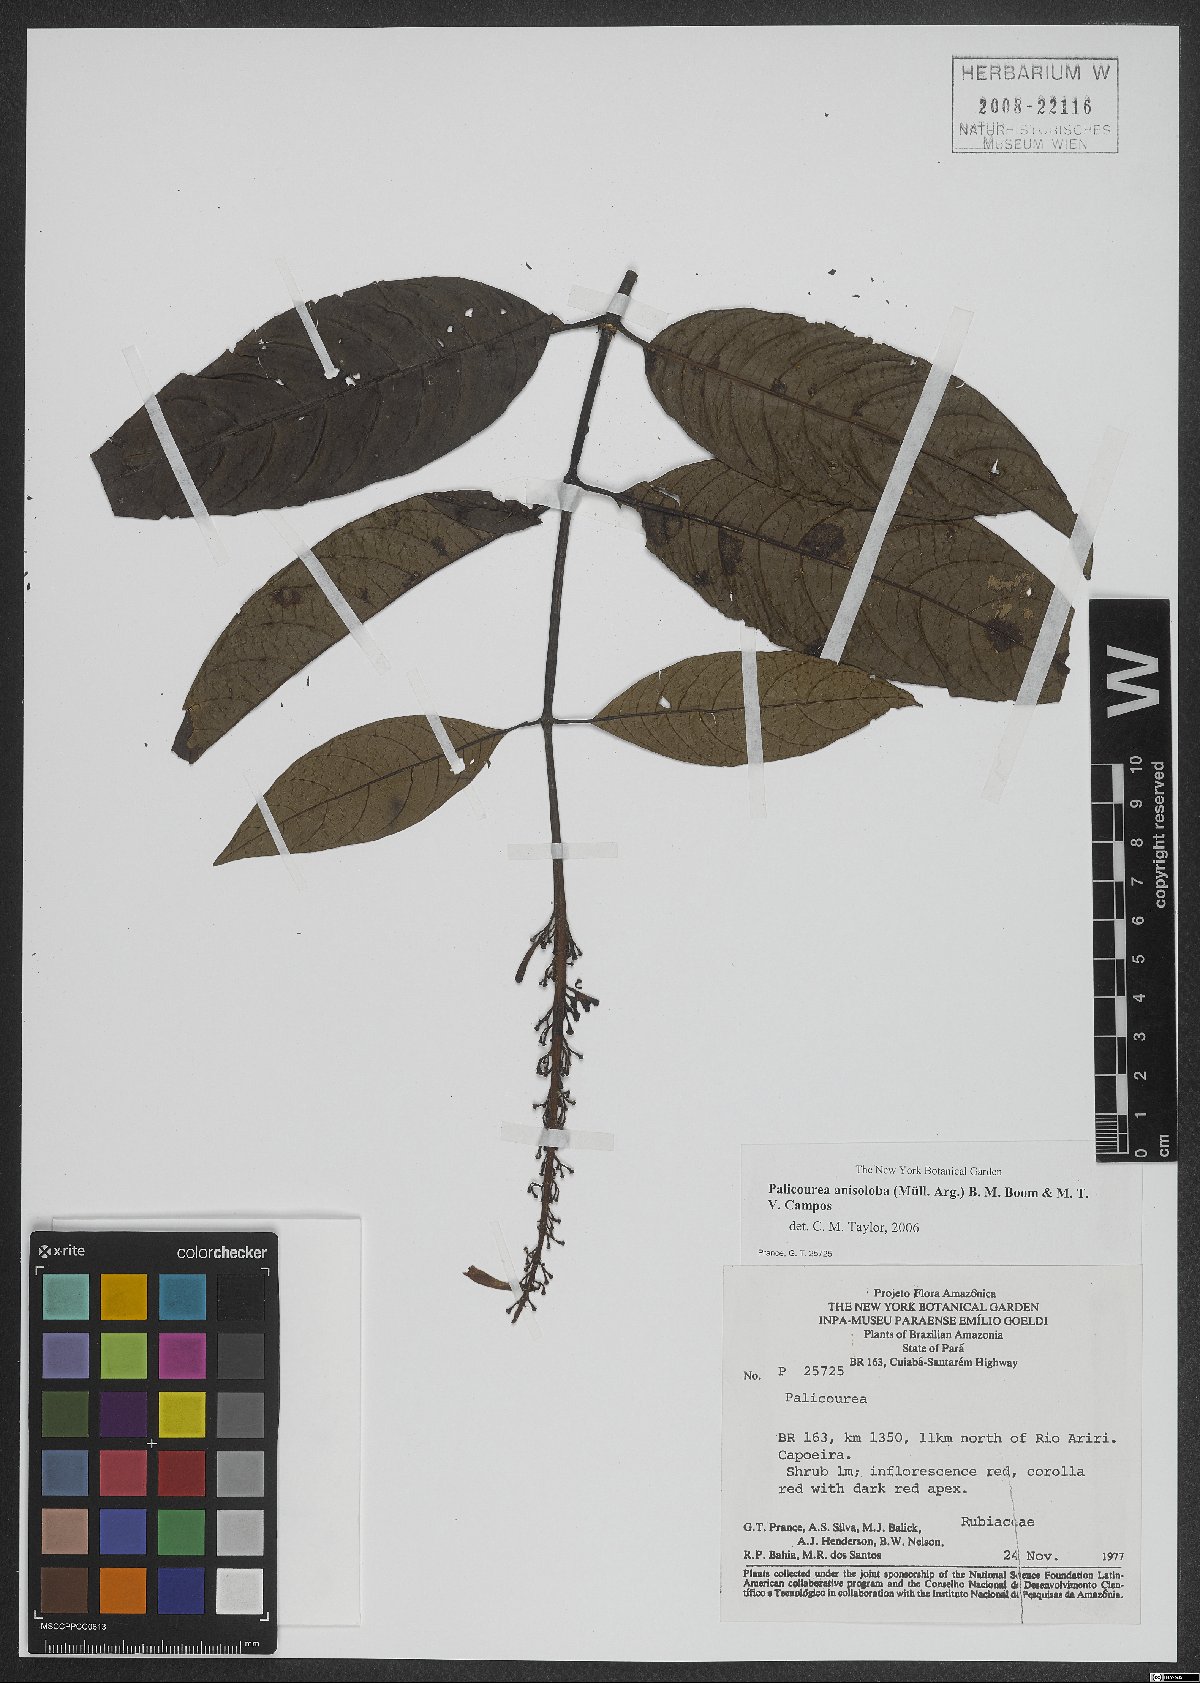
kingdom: Plantae
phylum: Tracheophyta
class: Magnoliopsida
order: Gentianales
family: Rubiaceae
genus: Palicourea
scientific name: Palicourea anisoloba
